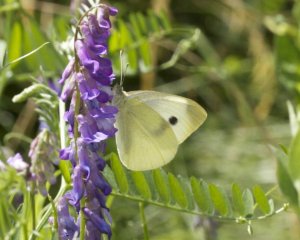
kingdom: Animalia
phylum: Arthropoda
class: Insecta
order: Lepidoptera
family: Pieridae
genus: Pieris
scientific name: Pieris rapae
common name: Cabbage White
